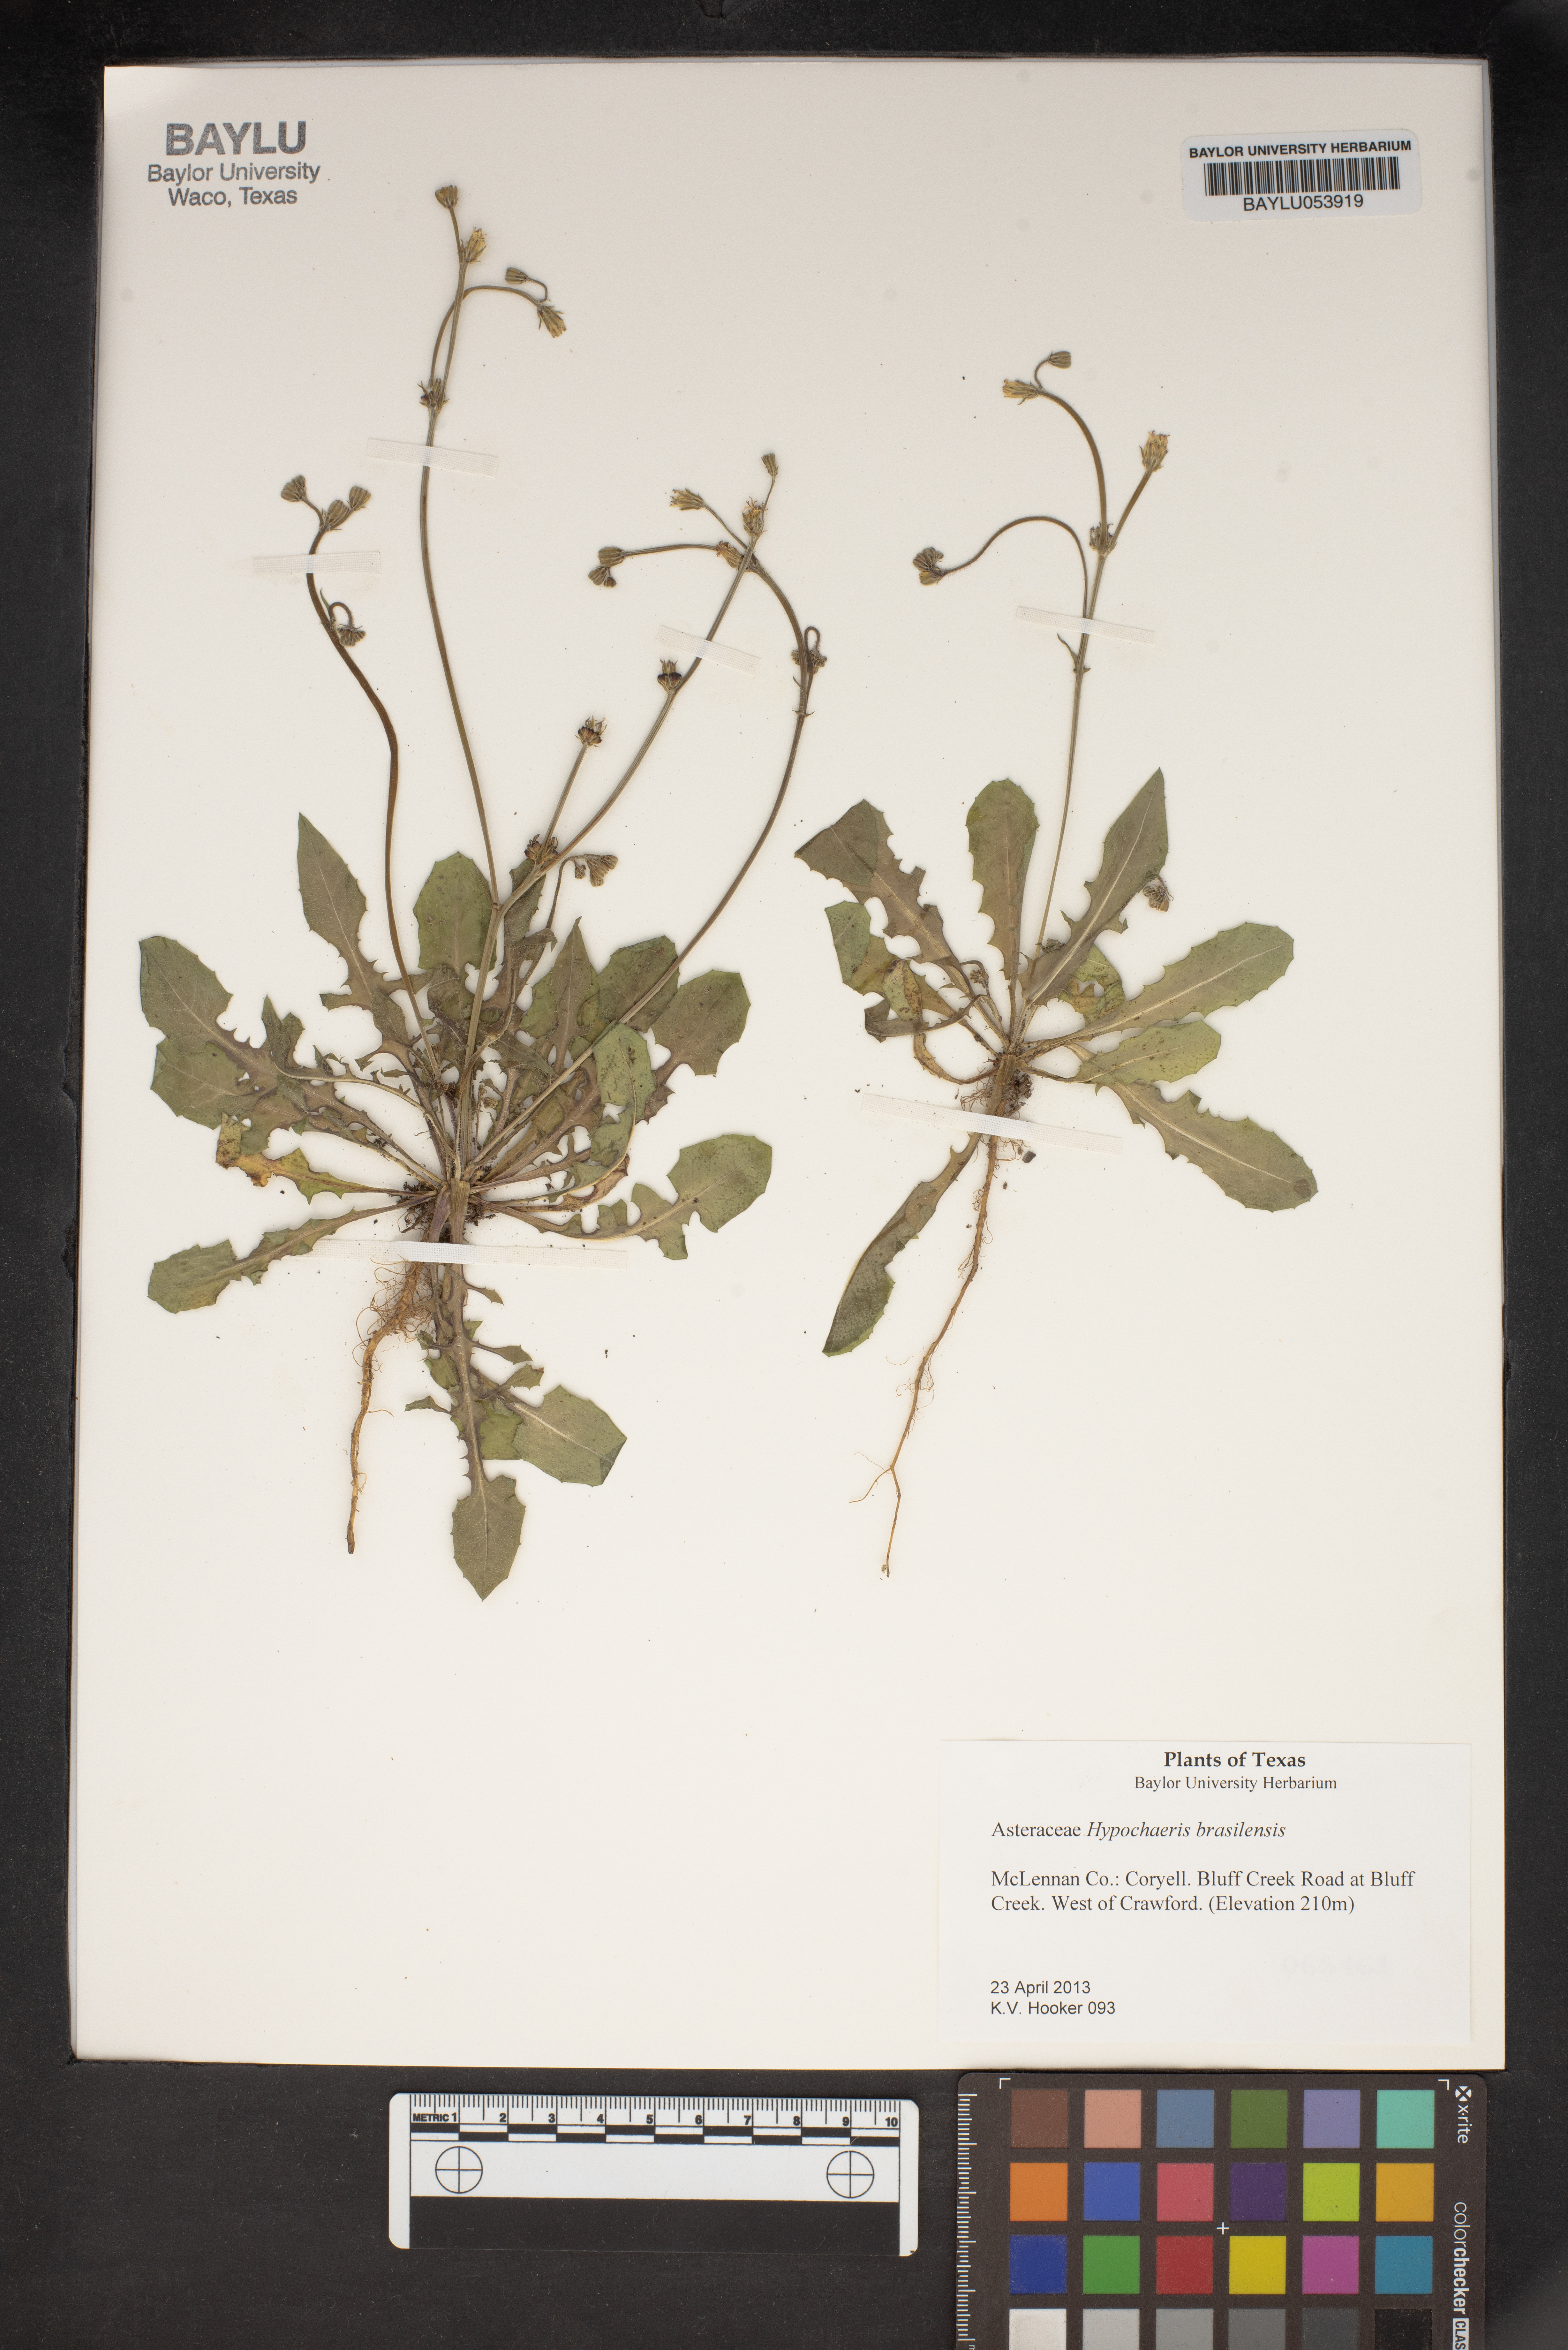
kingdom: Plantae
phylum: Tracheophyta
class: Magnoliopsida
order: Asterales
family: Asteraceae
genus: Hypochaeris
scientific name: Hypochaeris chillensis
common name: Brazilian cat's ear
